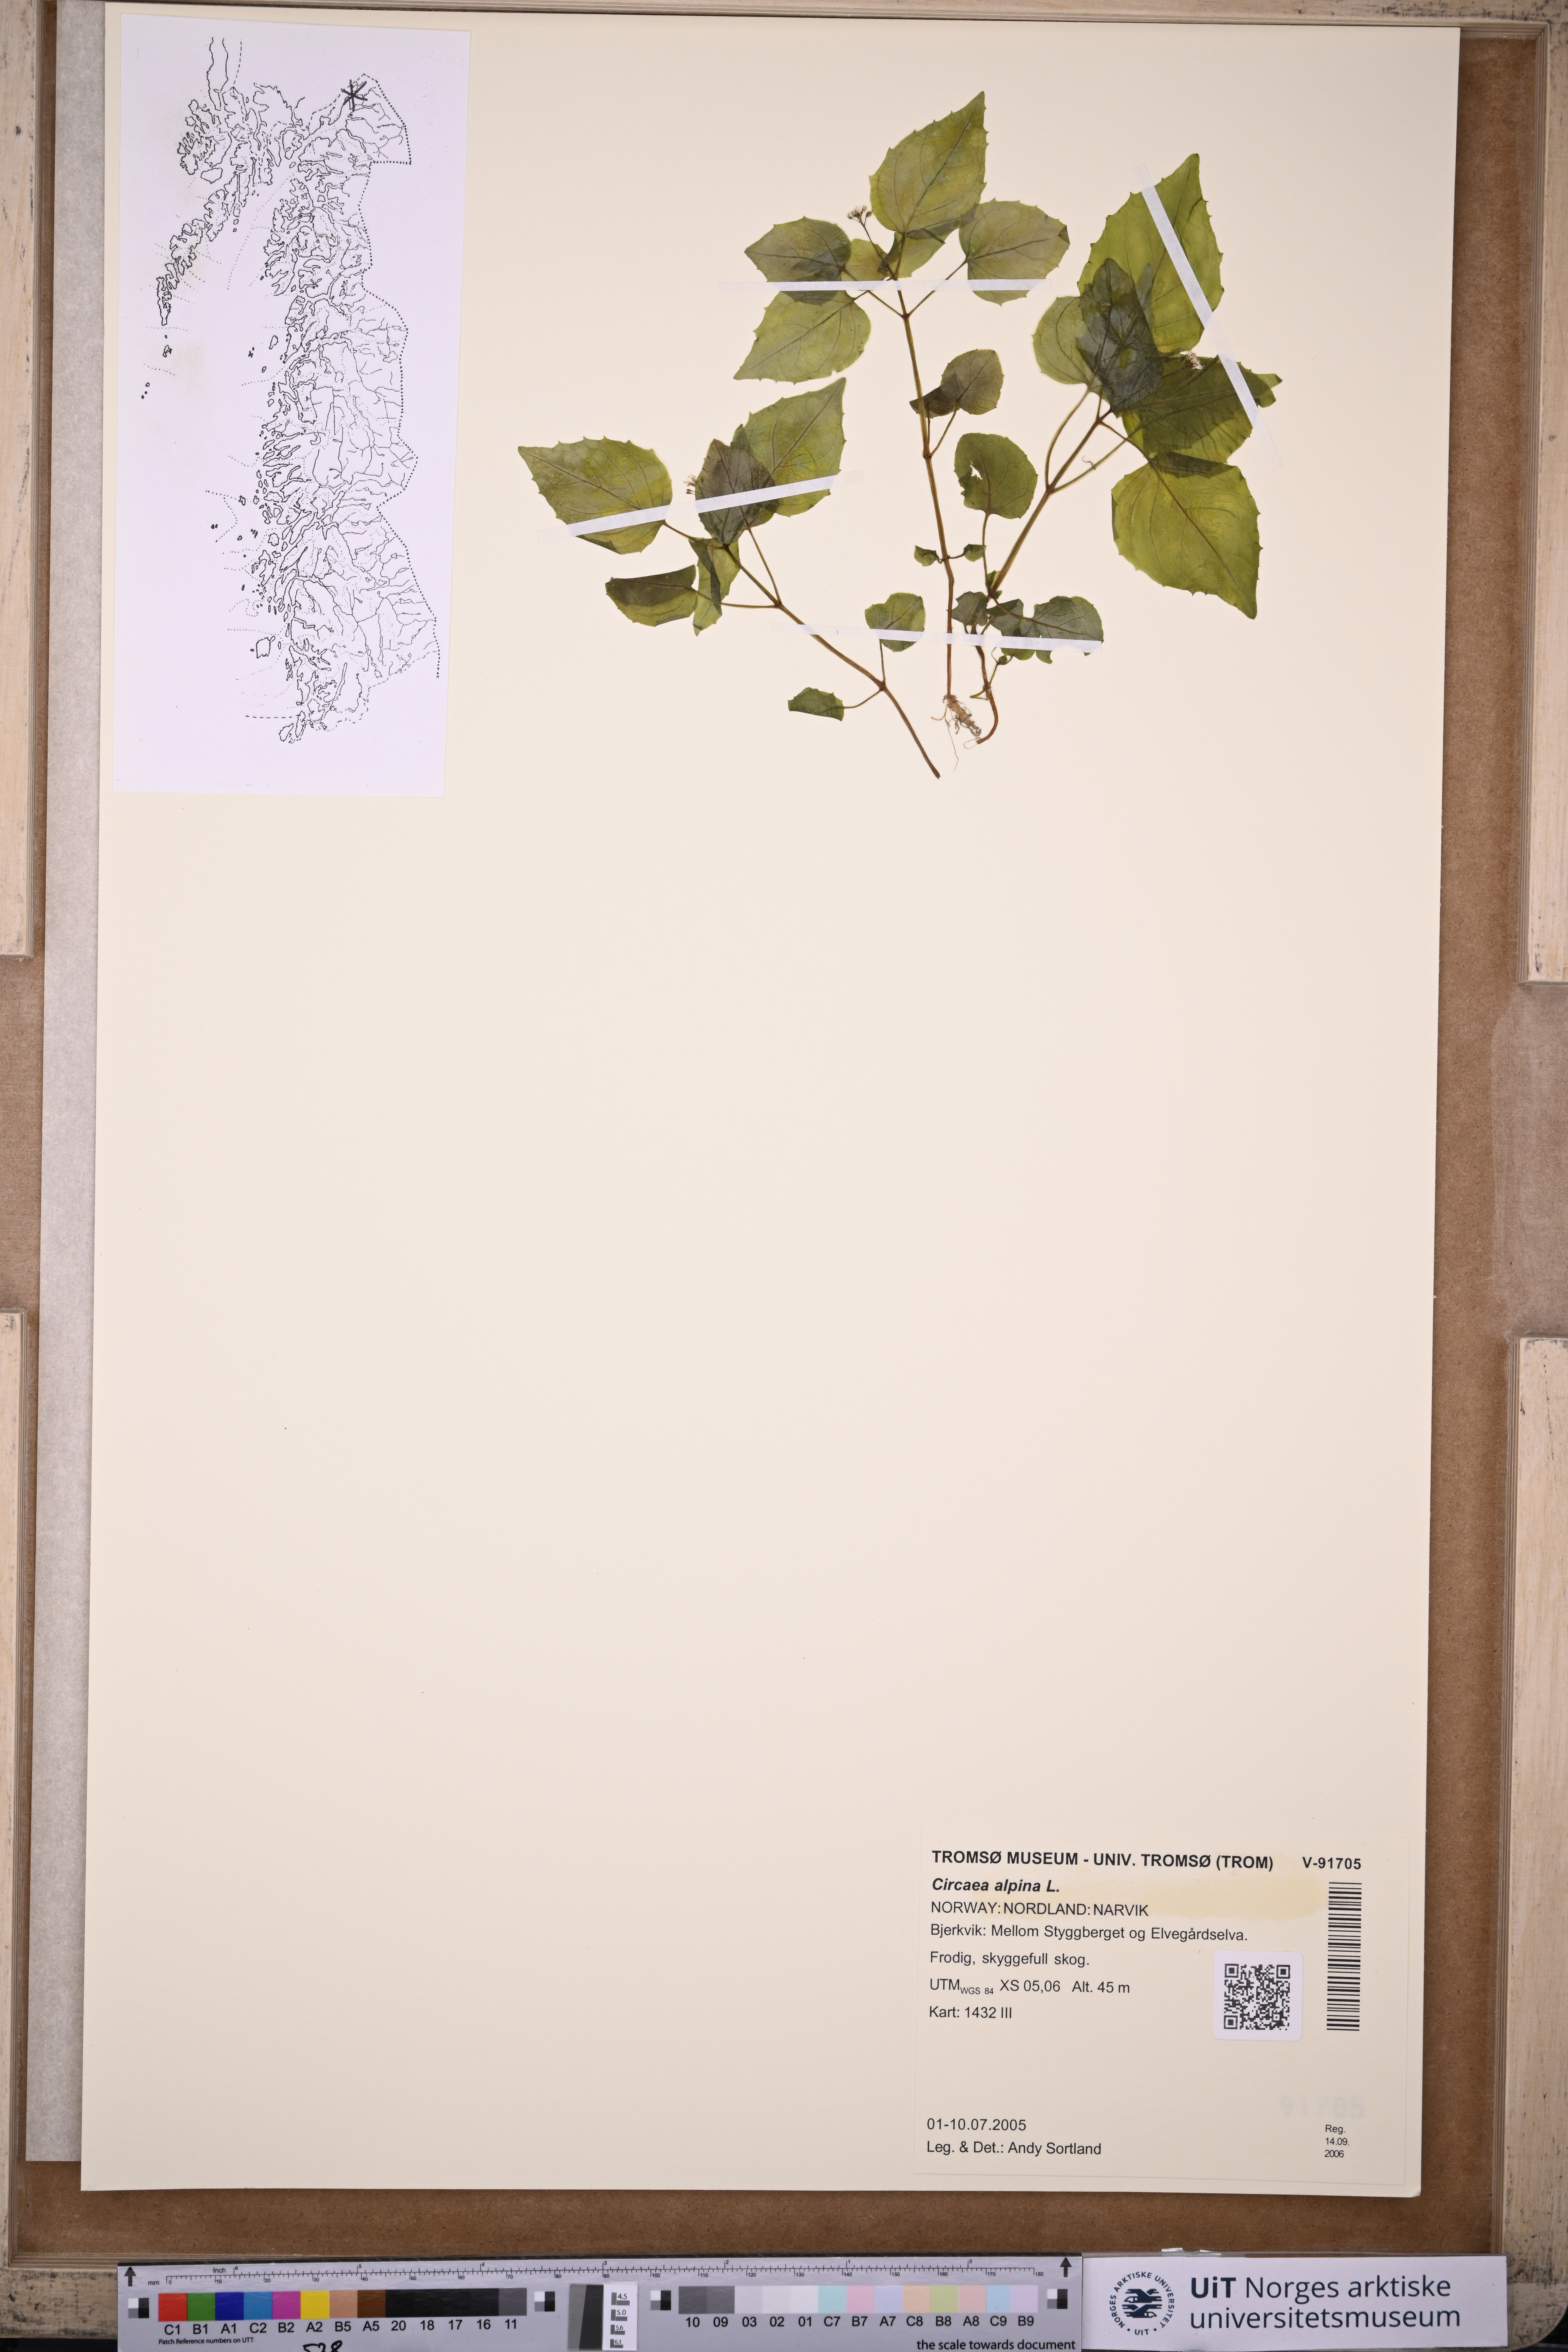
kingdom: Plantae
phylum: Tracheophyta
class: Magnoliopsida
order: Myrtales
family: Onagraceae
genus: Circaea
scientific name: Circaea alpina
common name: Alpine enchanter's-nightshade
